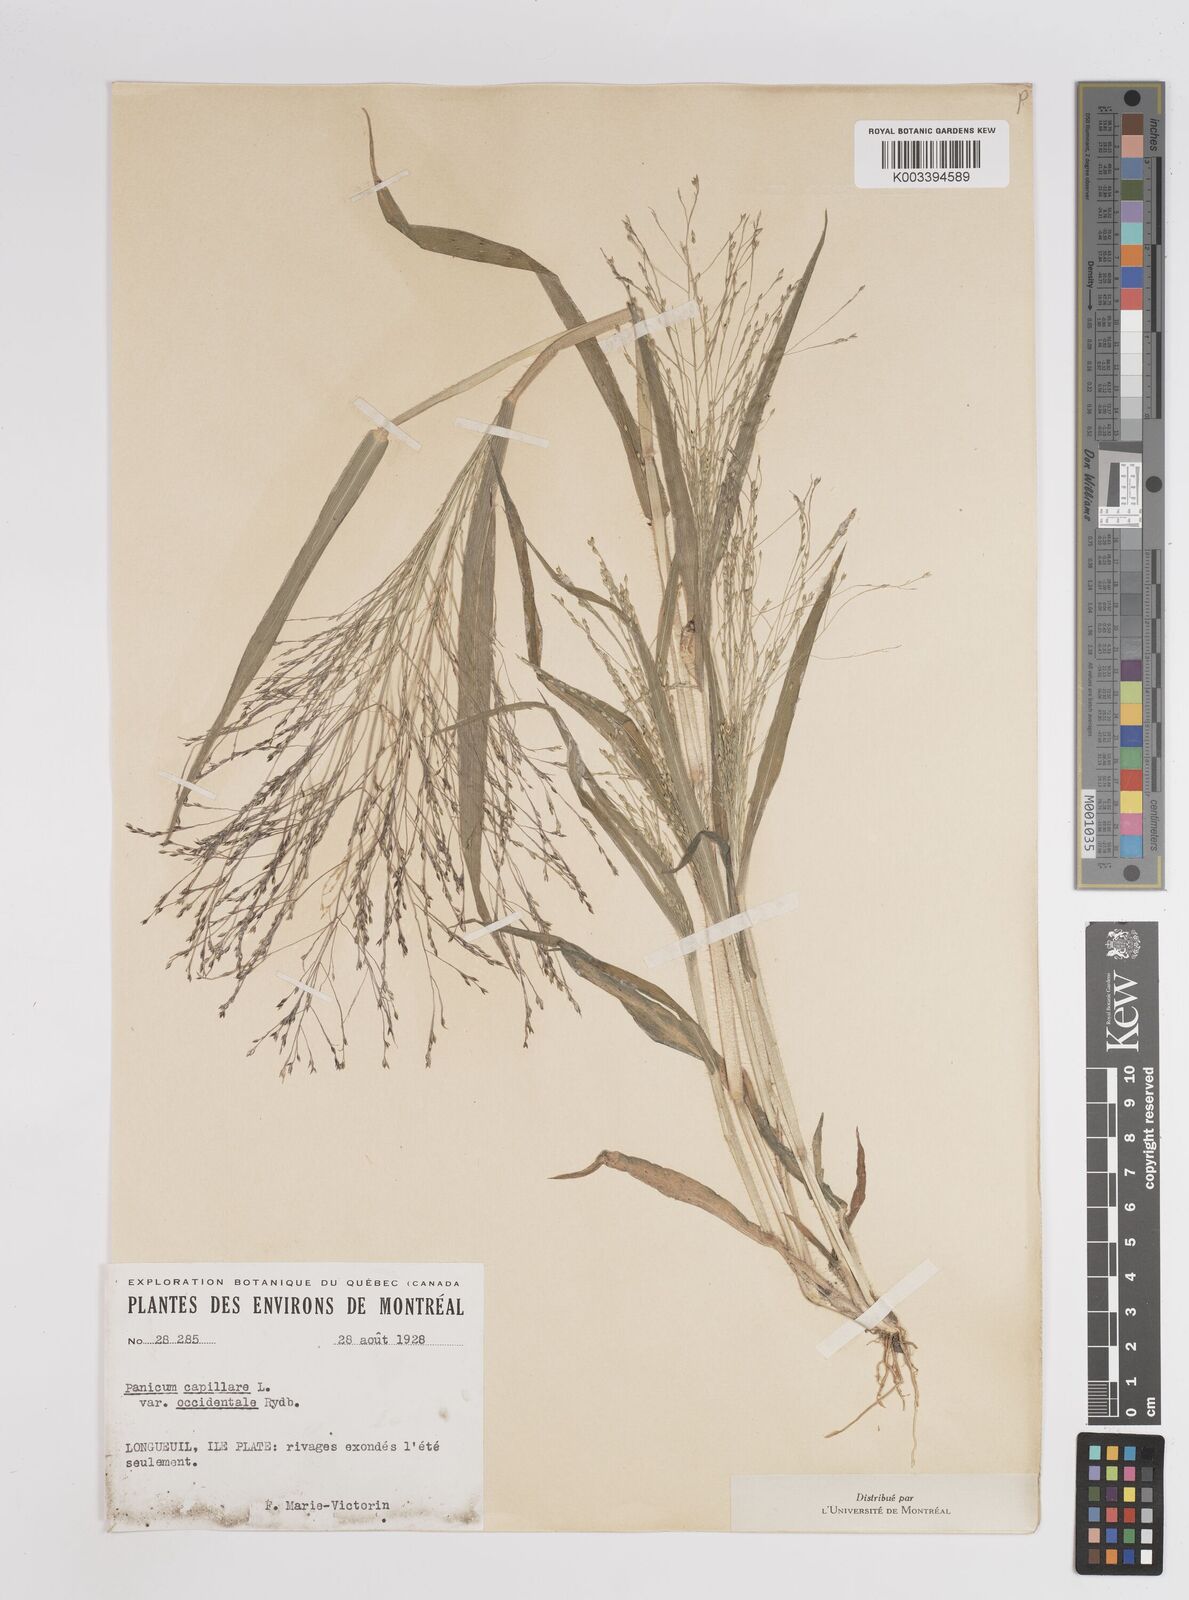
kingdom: Plantae
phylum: Tracheophyta
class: Liliopsida
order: Poales
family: Poaceae
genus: Panicum
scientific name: Panicum capillare
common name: Witch-grass
